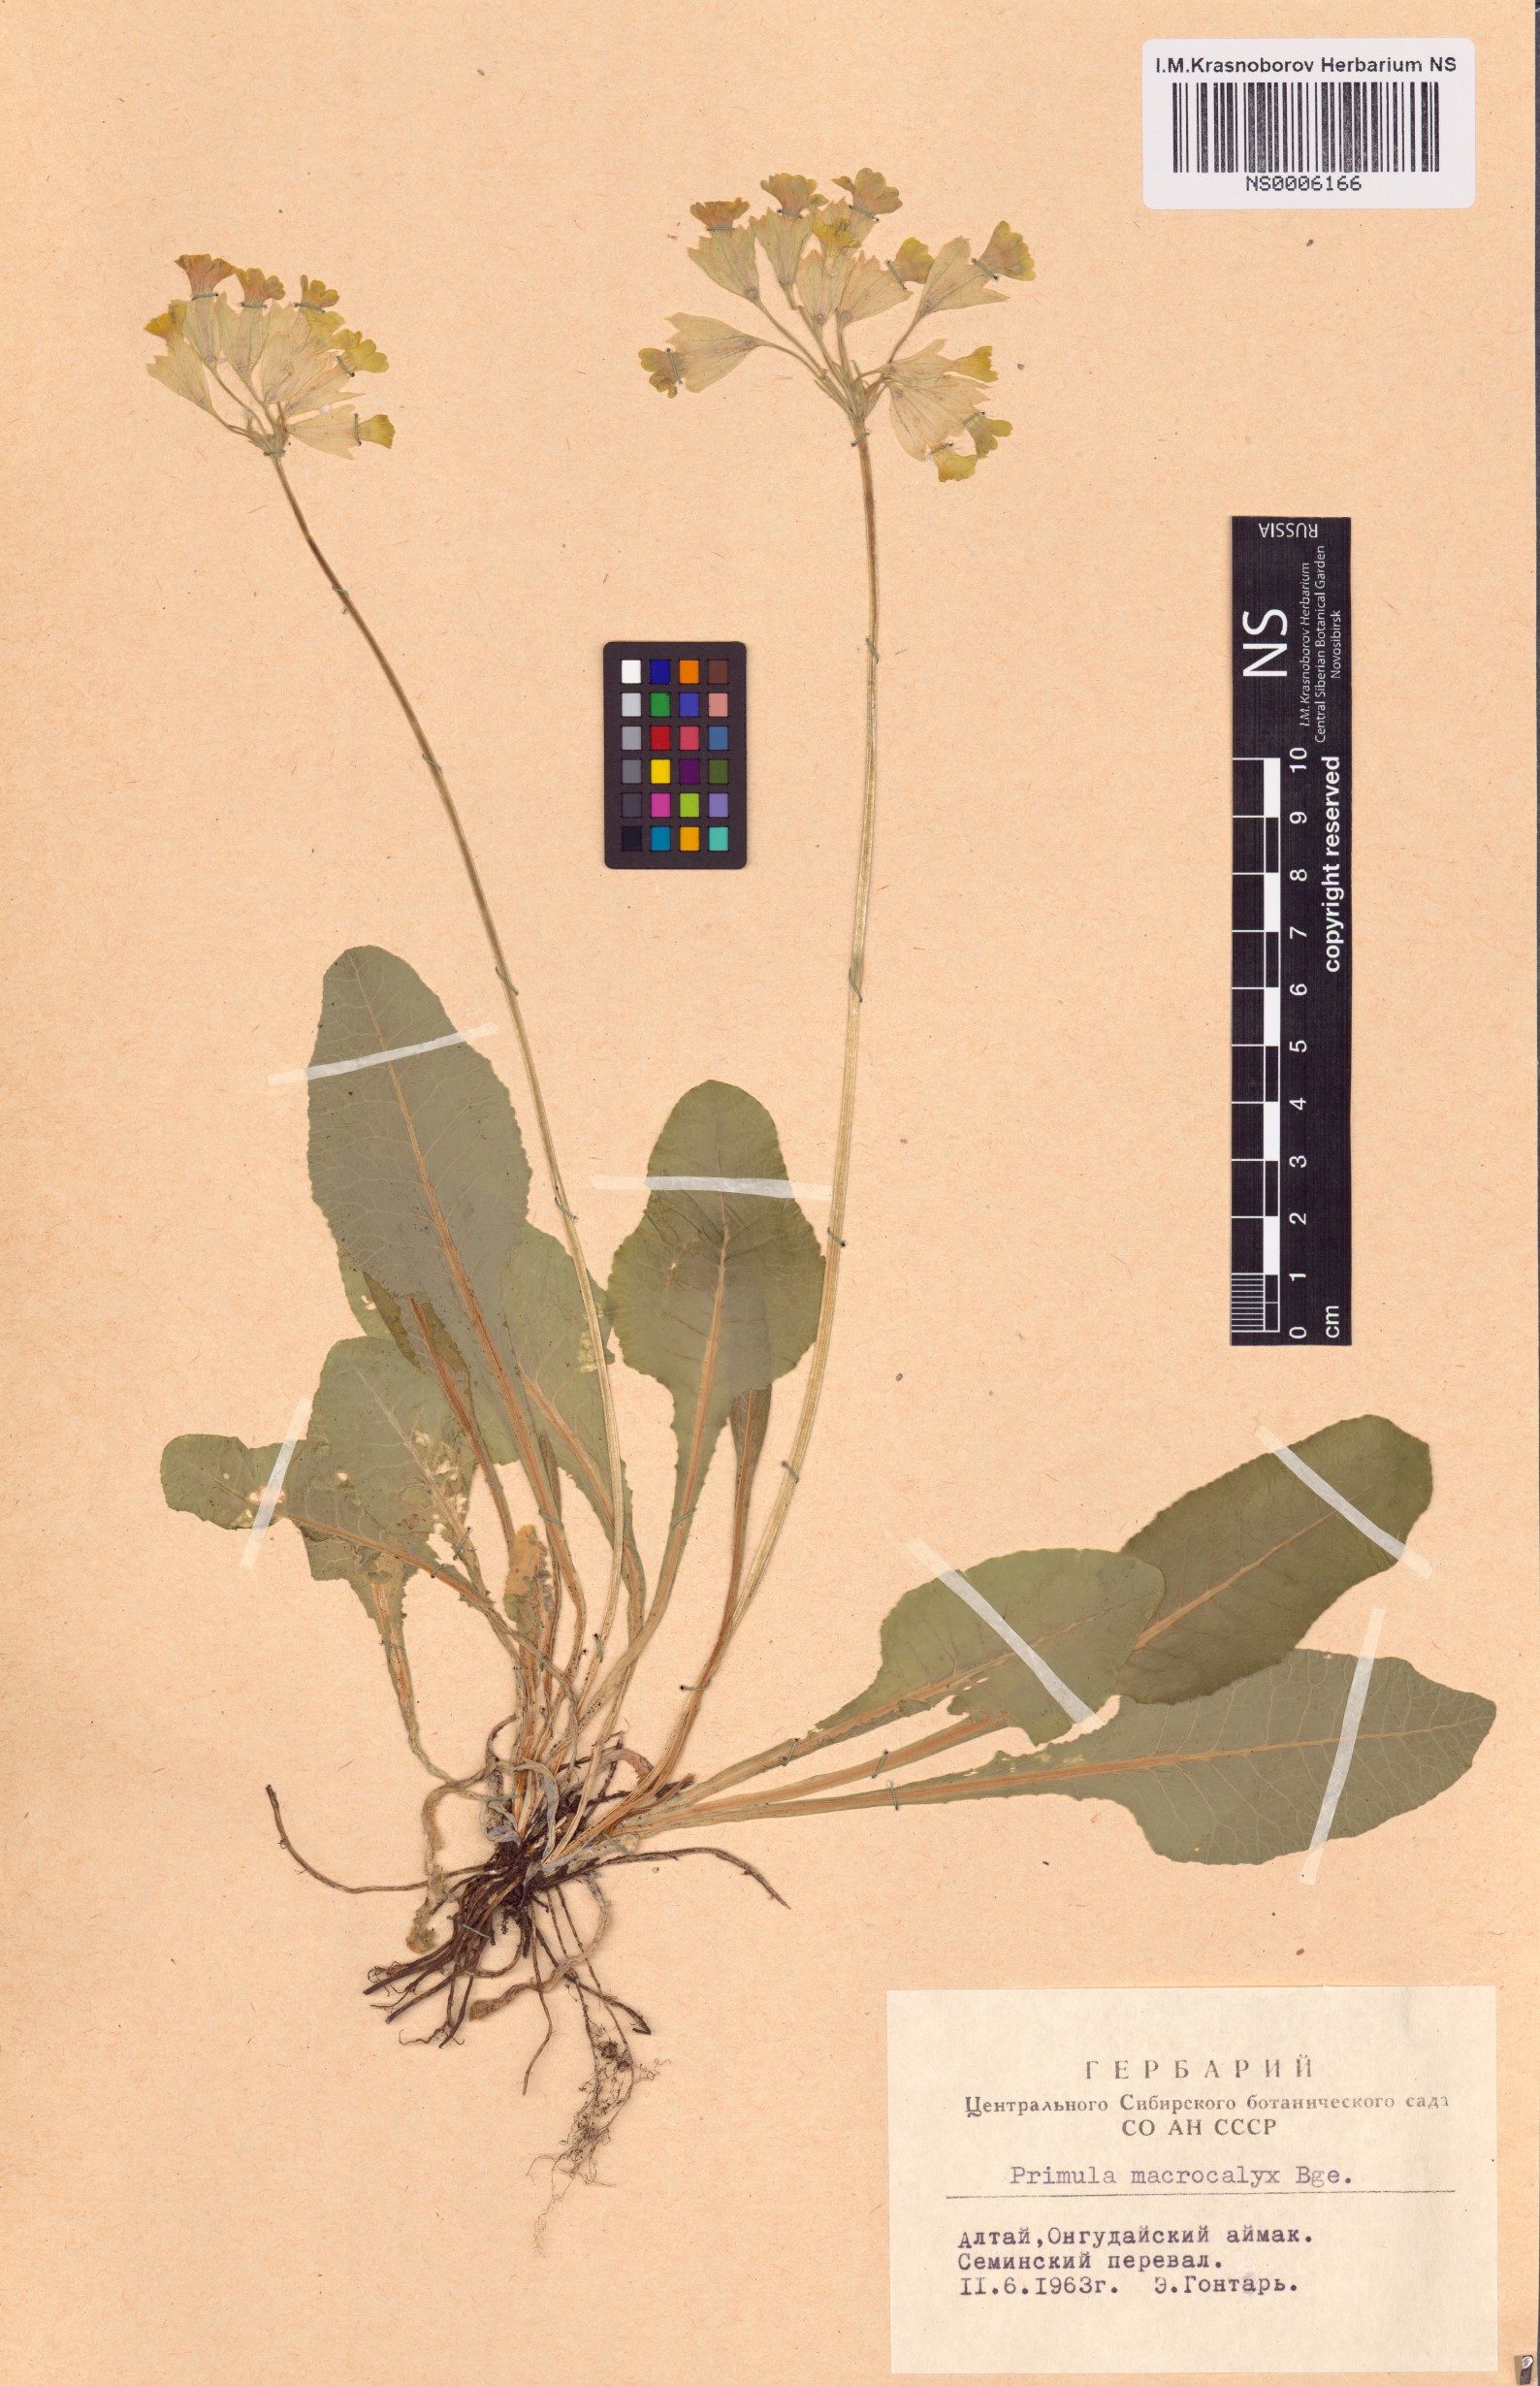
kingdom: Plantae
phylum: Tracheophyta
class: Magnoliopsida
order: Ericales
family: Primulaceae
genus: Primula
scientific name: Primula veris
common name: Cowslip
